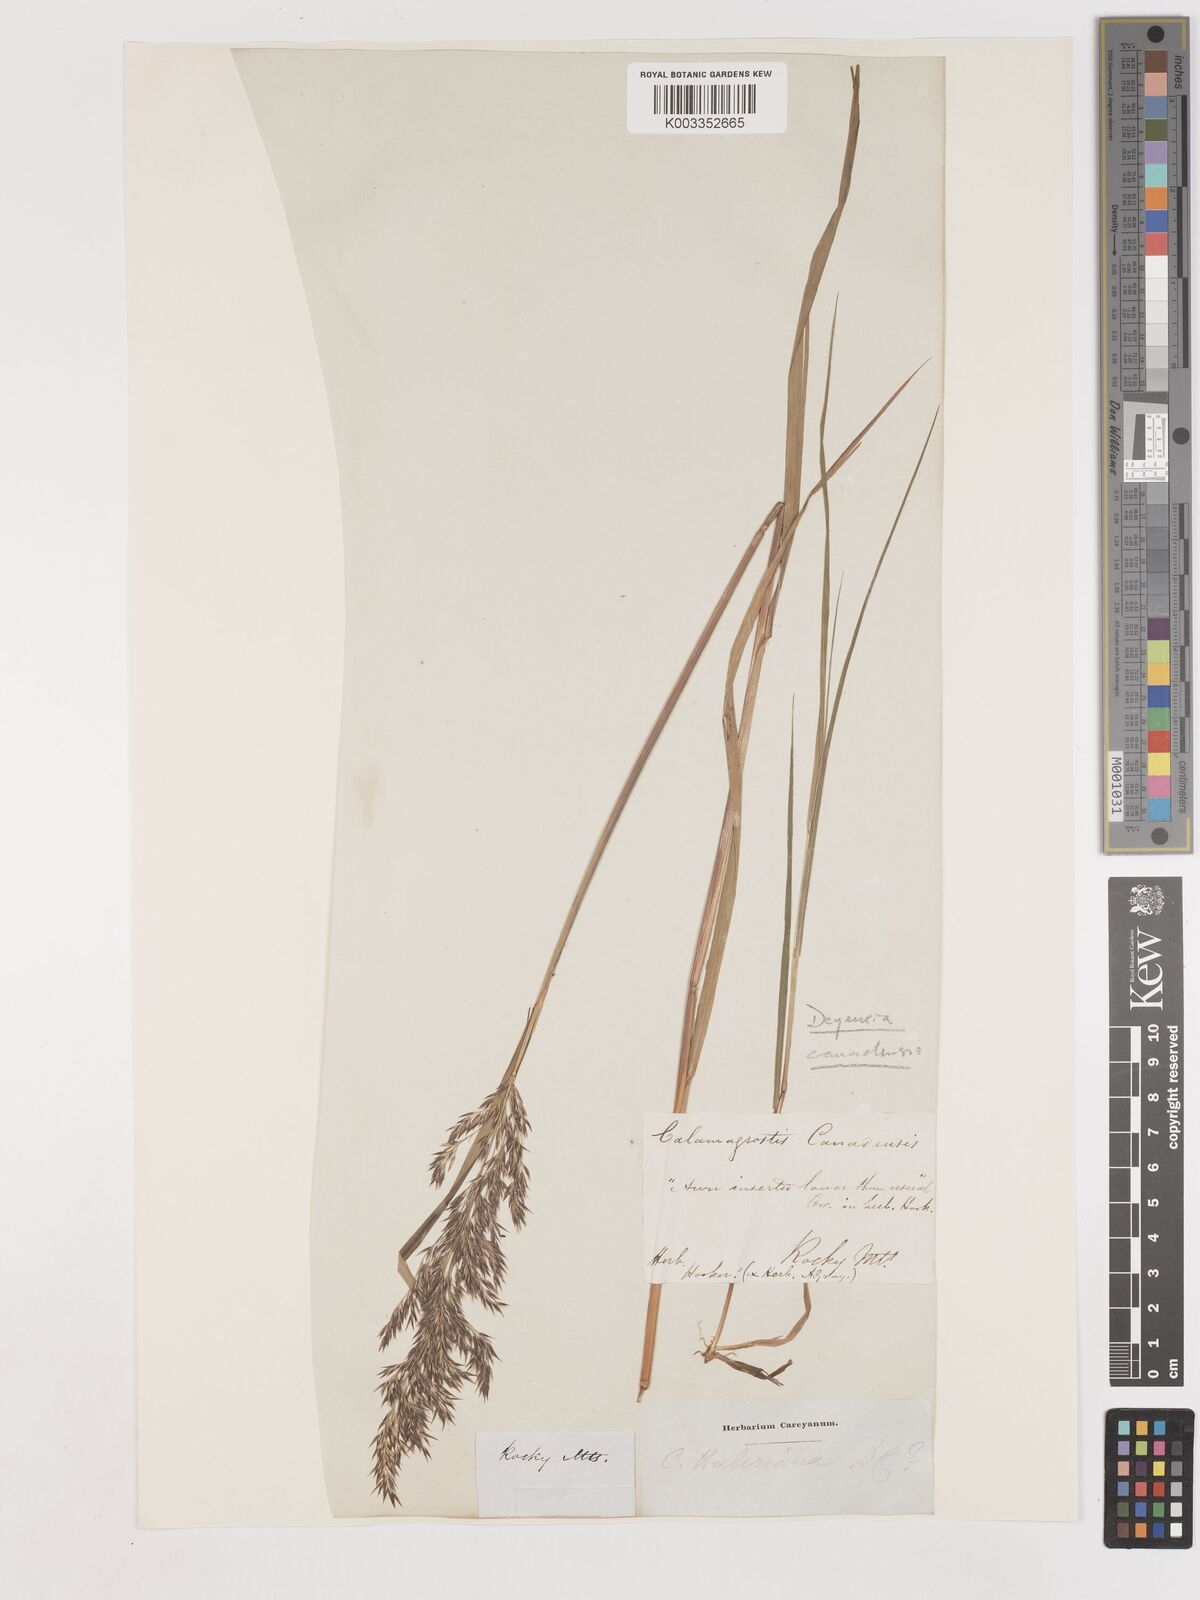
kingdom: Plantae
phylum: Tracheophyta
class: Liliopsida
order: Poales
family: Poaceae
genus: Calamagrostis
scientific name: Calamagrostis canadensis
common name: Canada bluejoint
